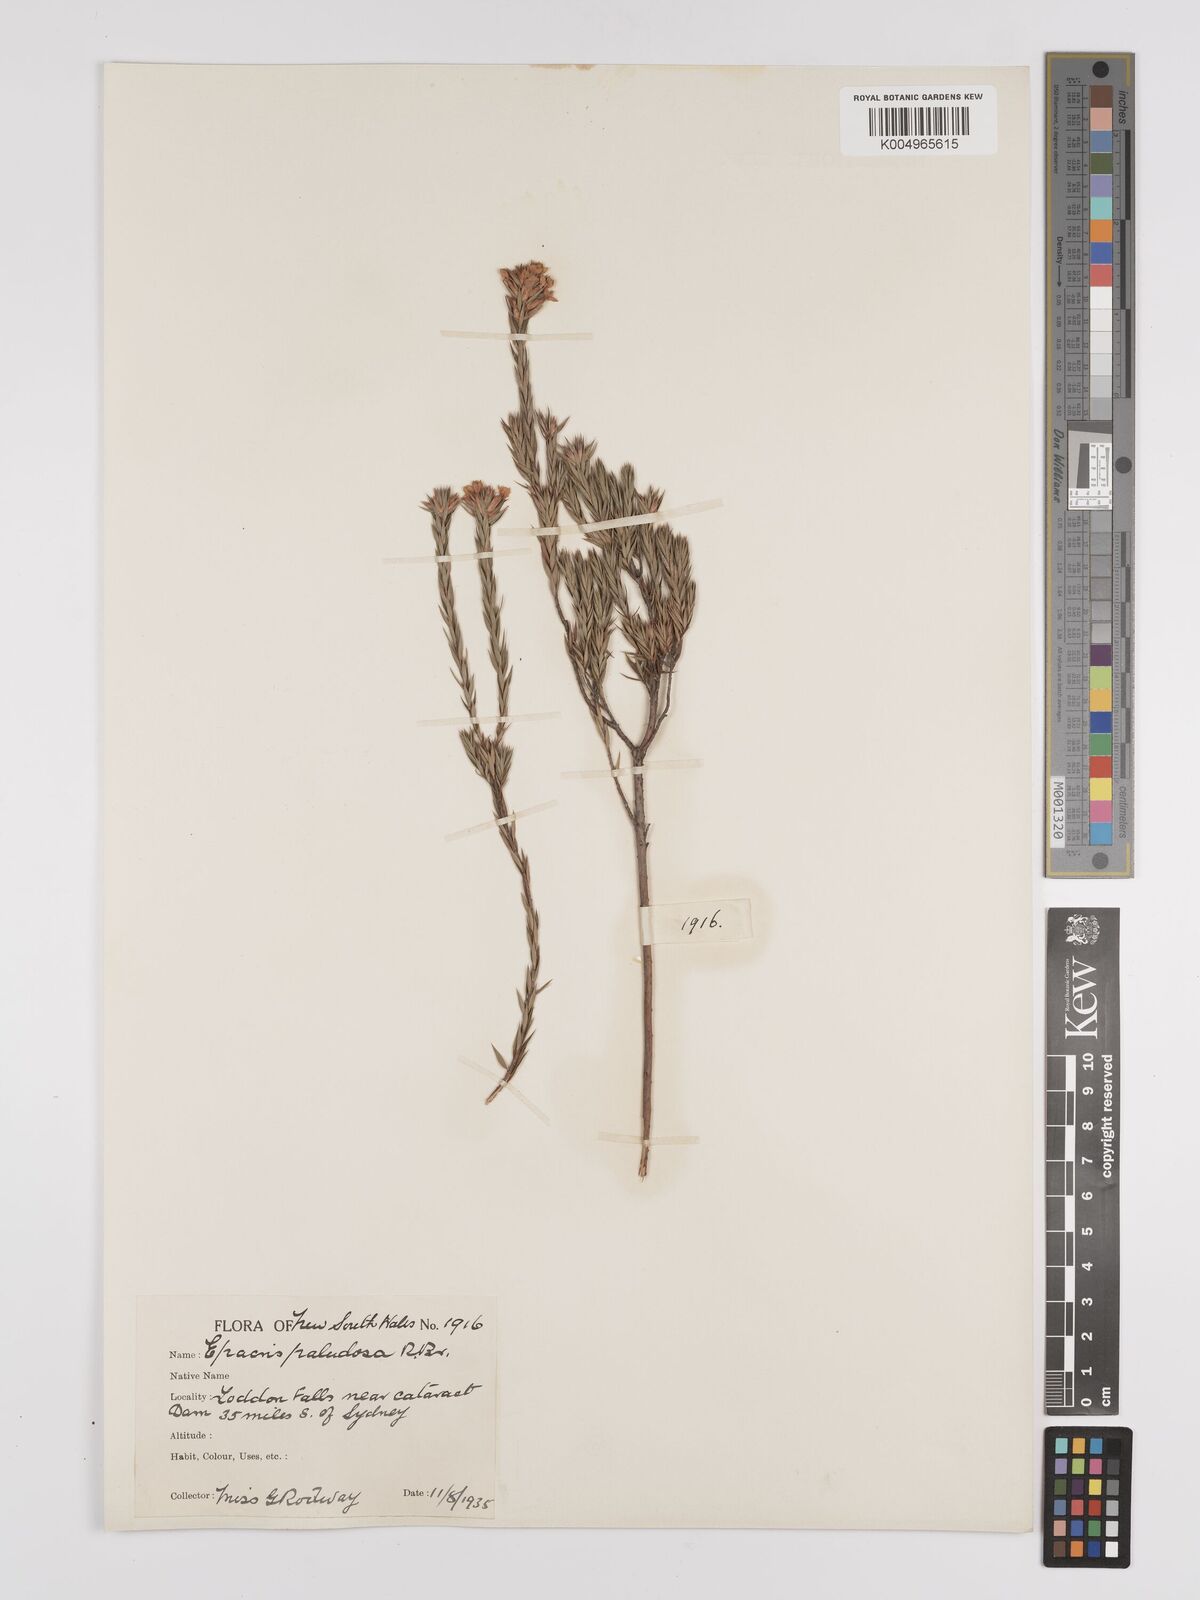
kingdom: Plantae
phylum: Tracheophyta
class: Magnoliopsida
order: Ericales
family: Ericaceae
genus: Epacris
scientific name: Epacris paludosa
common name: Swamp-heath
